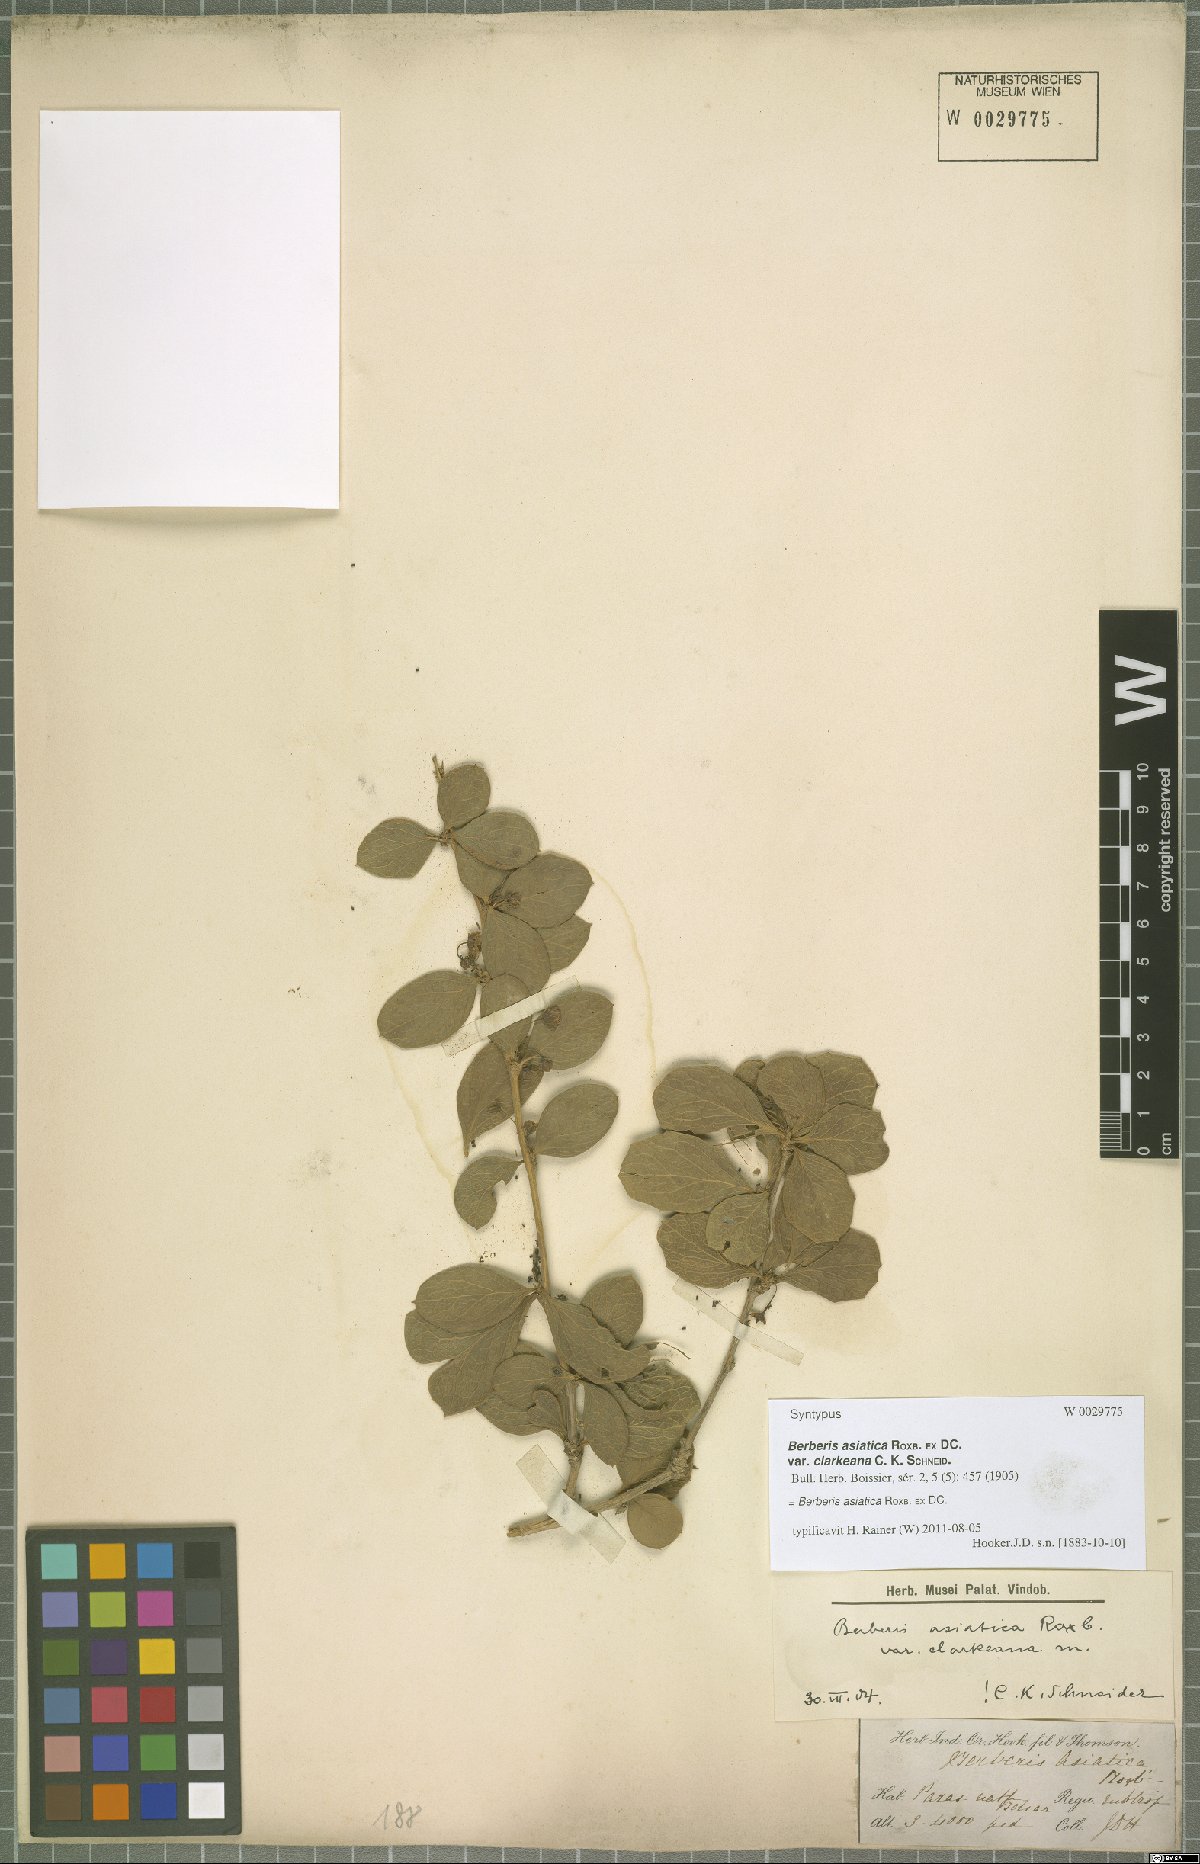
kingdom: Plantae
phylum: Tracheophyta
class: Magnoliopsida
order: Ranunculales
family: Berberidaceae
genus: Berberis
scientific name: Berberis asiatica
